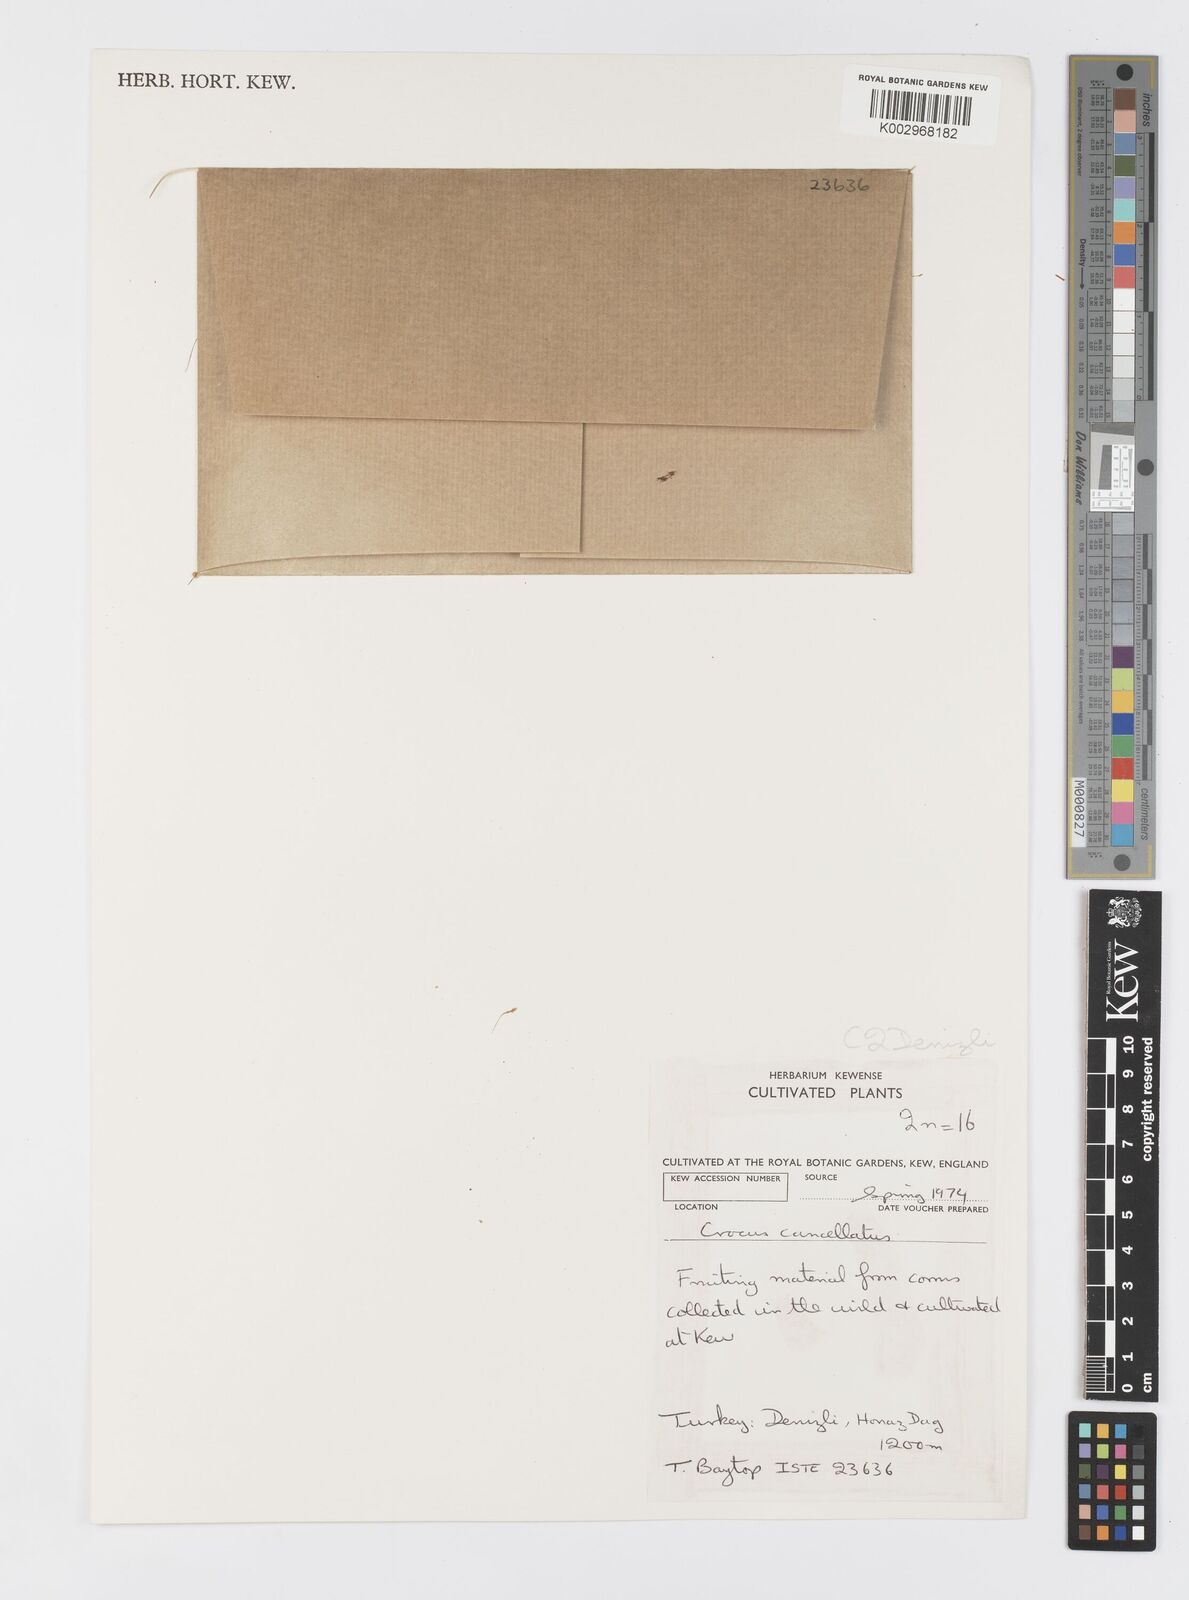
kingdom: Plantae
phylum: Tracheophyta
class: Liliopsida
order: Asparagales
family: Iridaceae
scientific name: Iridaceae
